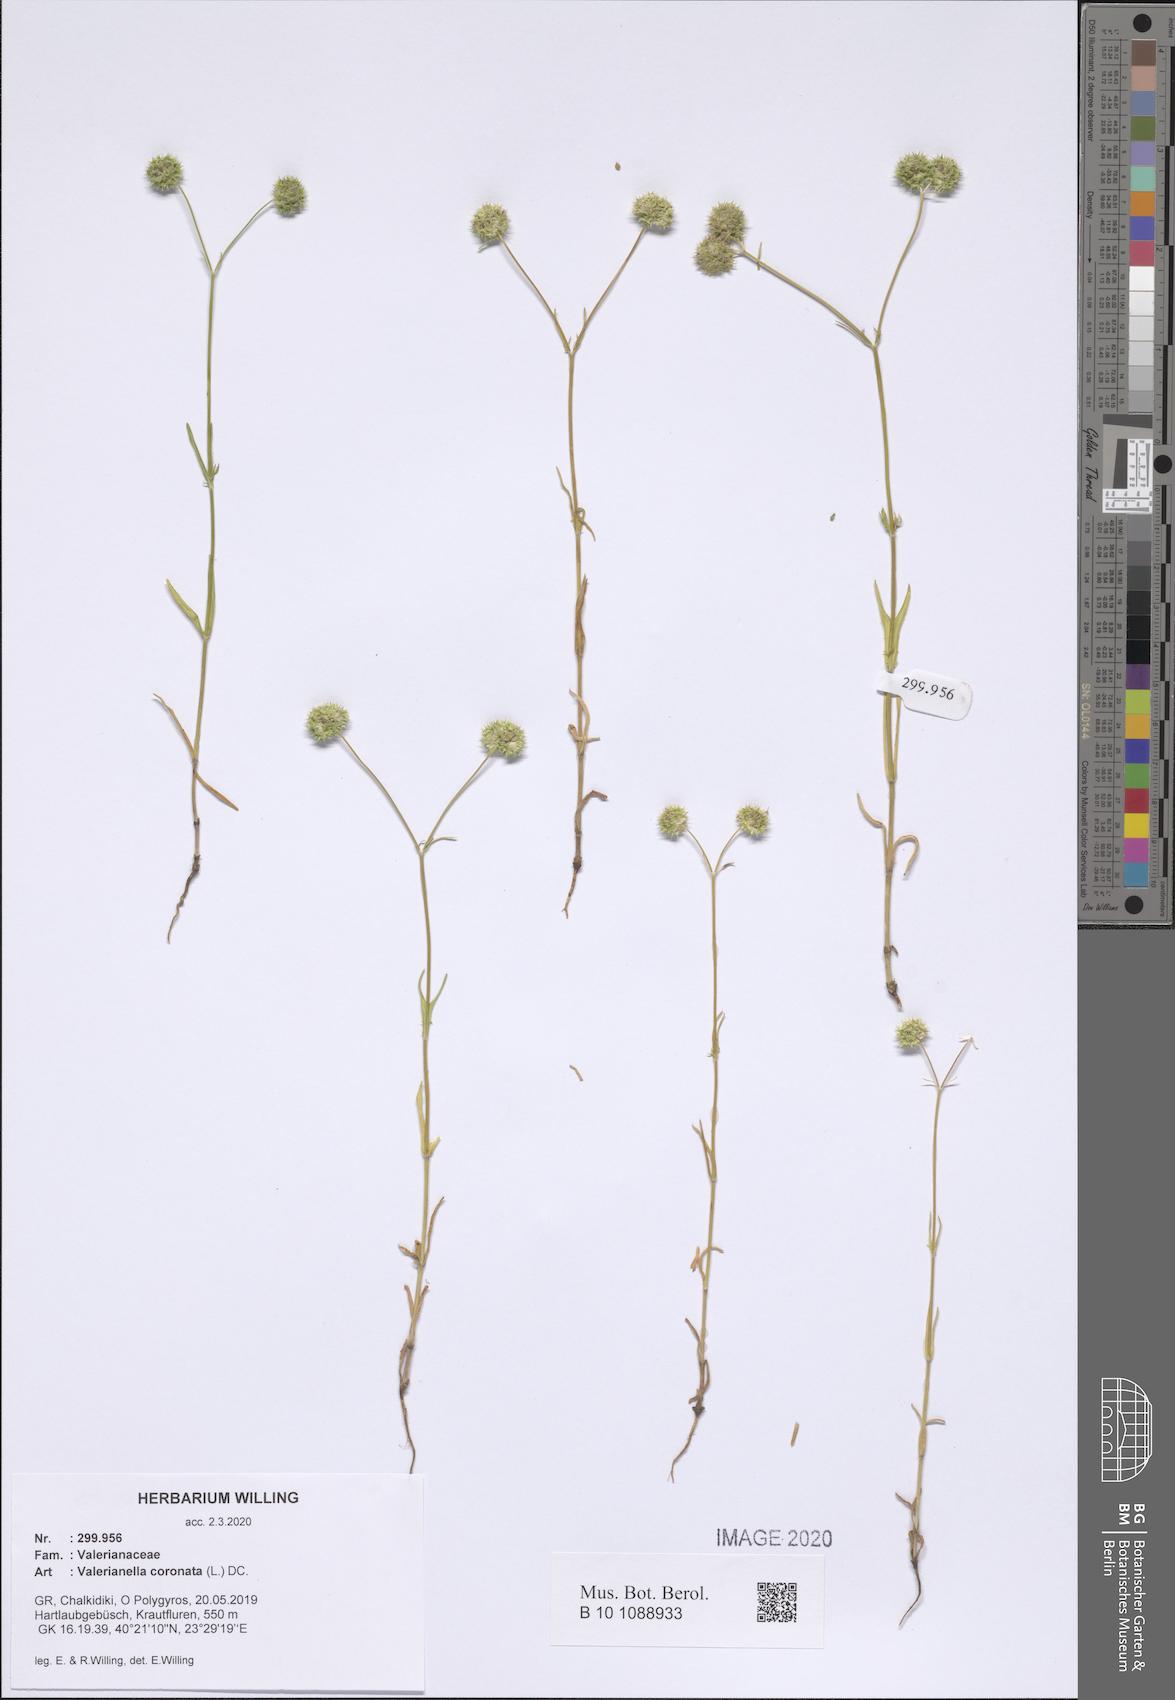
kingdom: Plantae
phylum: Tracheophyta
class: Magnoliopsida
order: Dipsacales
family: Caprifoliaceae
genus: Valerianella
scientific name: Valerianella coronata
